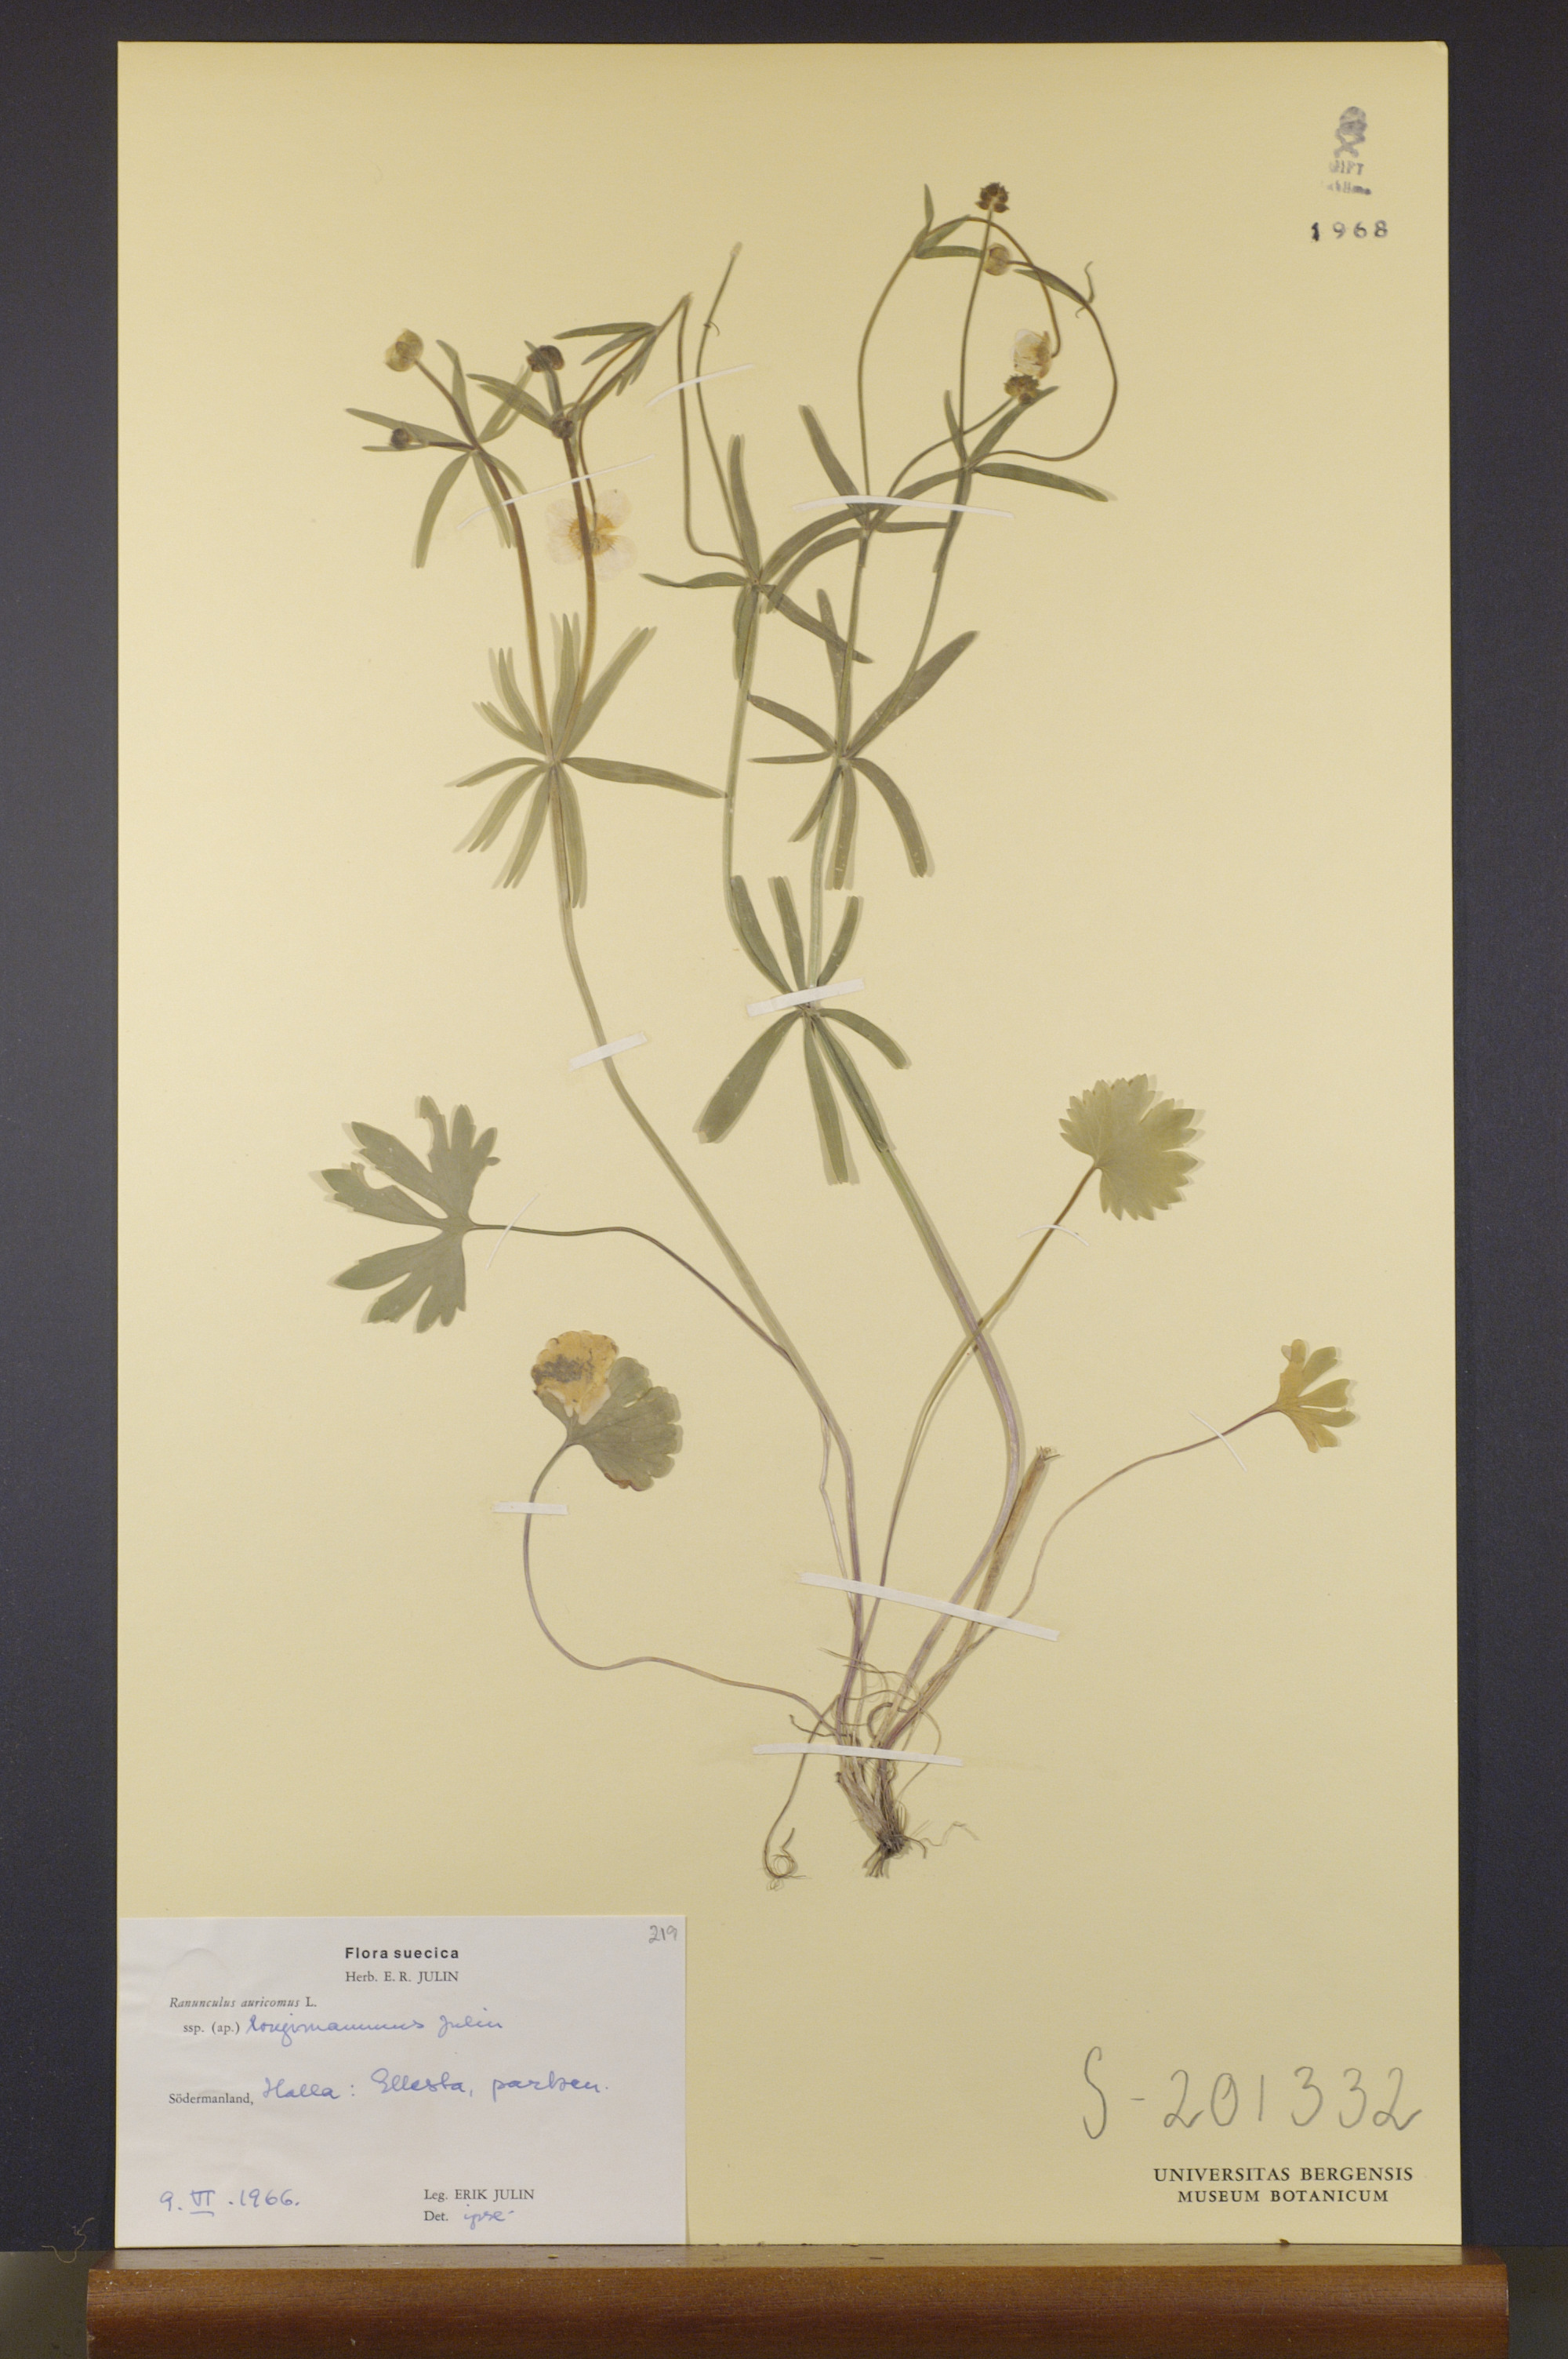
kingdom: Plantae
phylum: Tracheophyta
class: Magnoliopsida
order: Ranunculales
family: Ranunculaceae
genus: Ranunculus
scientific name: Ranunculus longimammus
